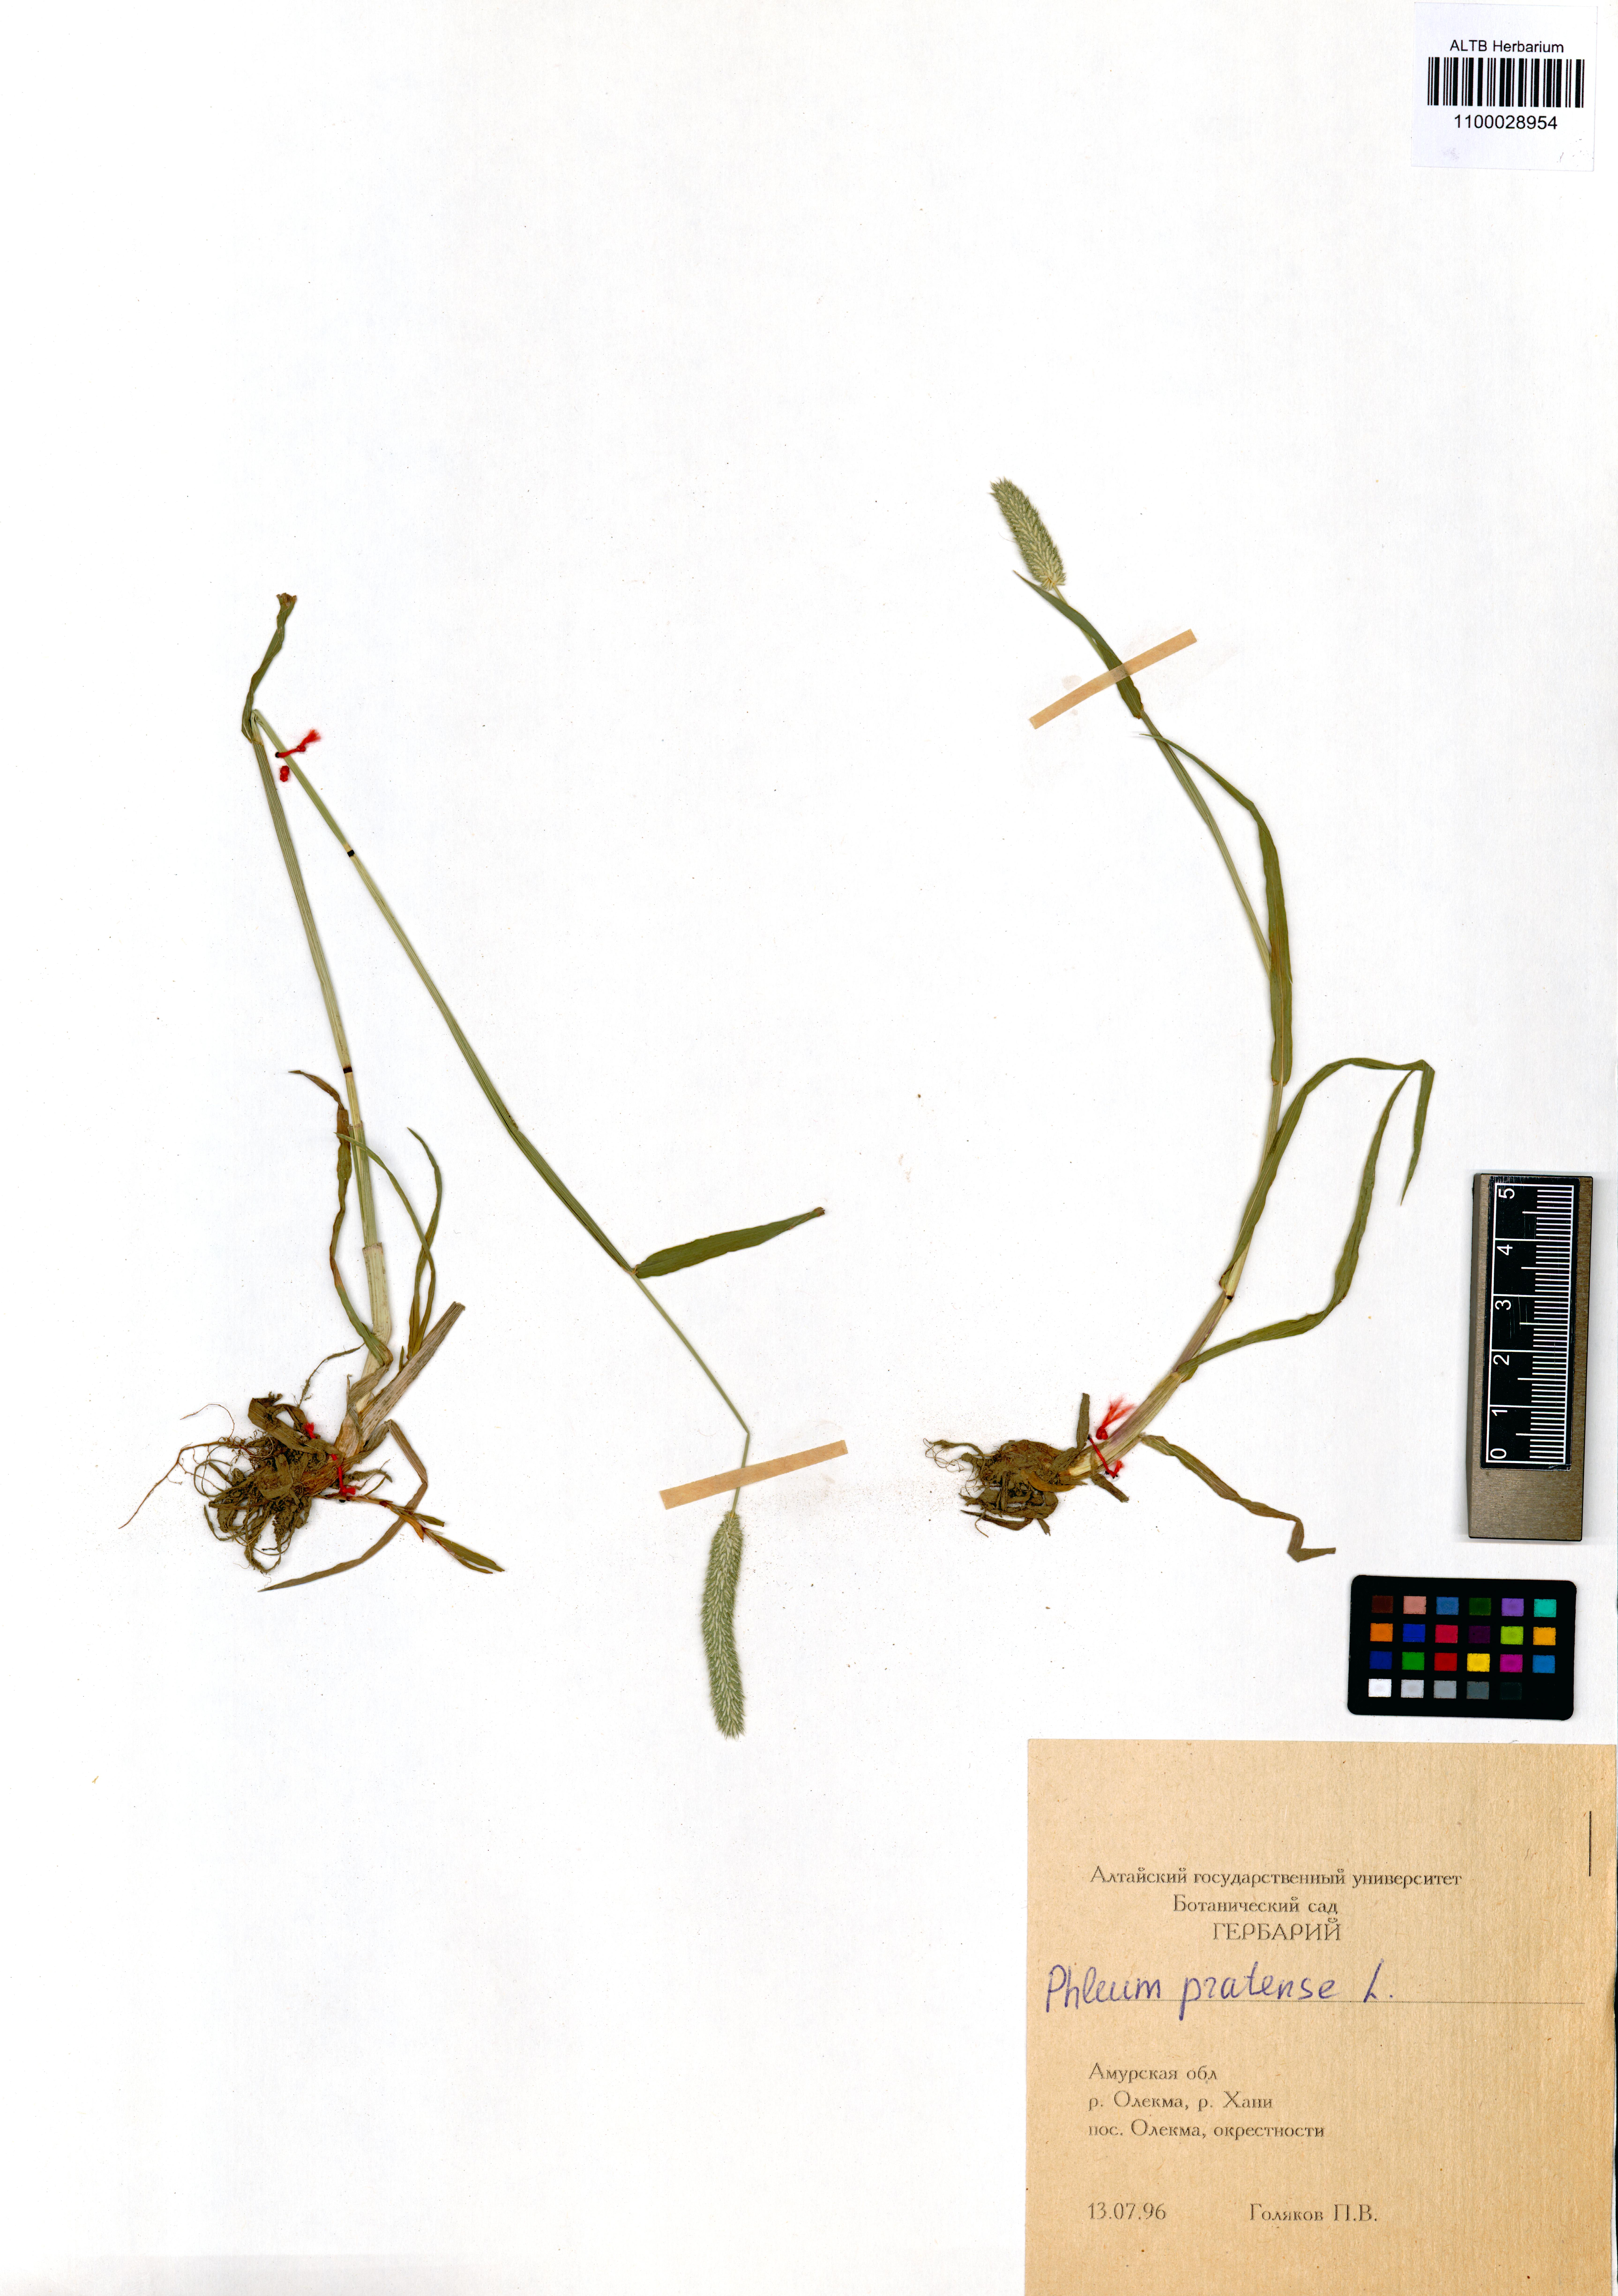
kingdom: Plantae
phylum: Tracheophyta
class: Liliopsida
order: Poales
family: Poaceae
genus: Phleum
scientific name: Phleum pratense
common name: Timothy grass
